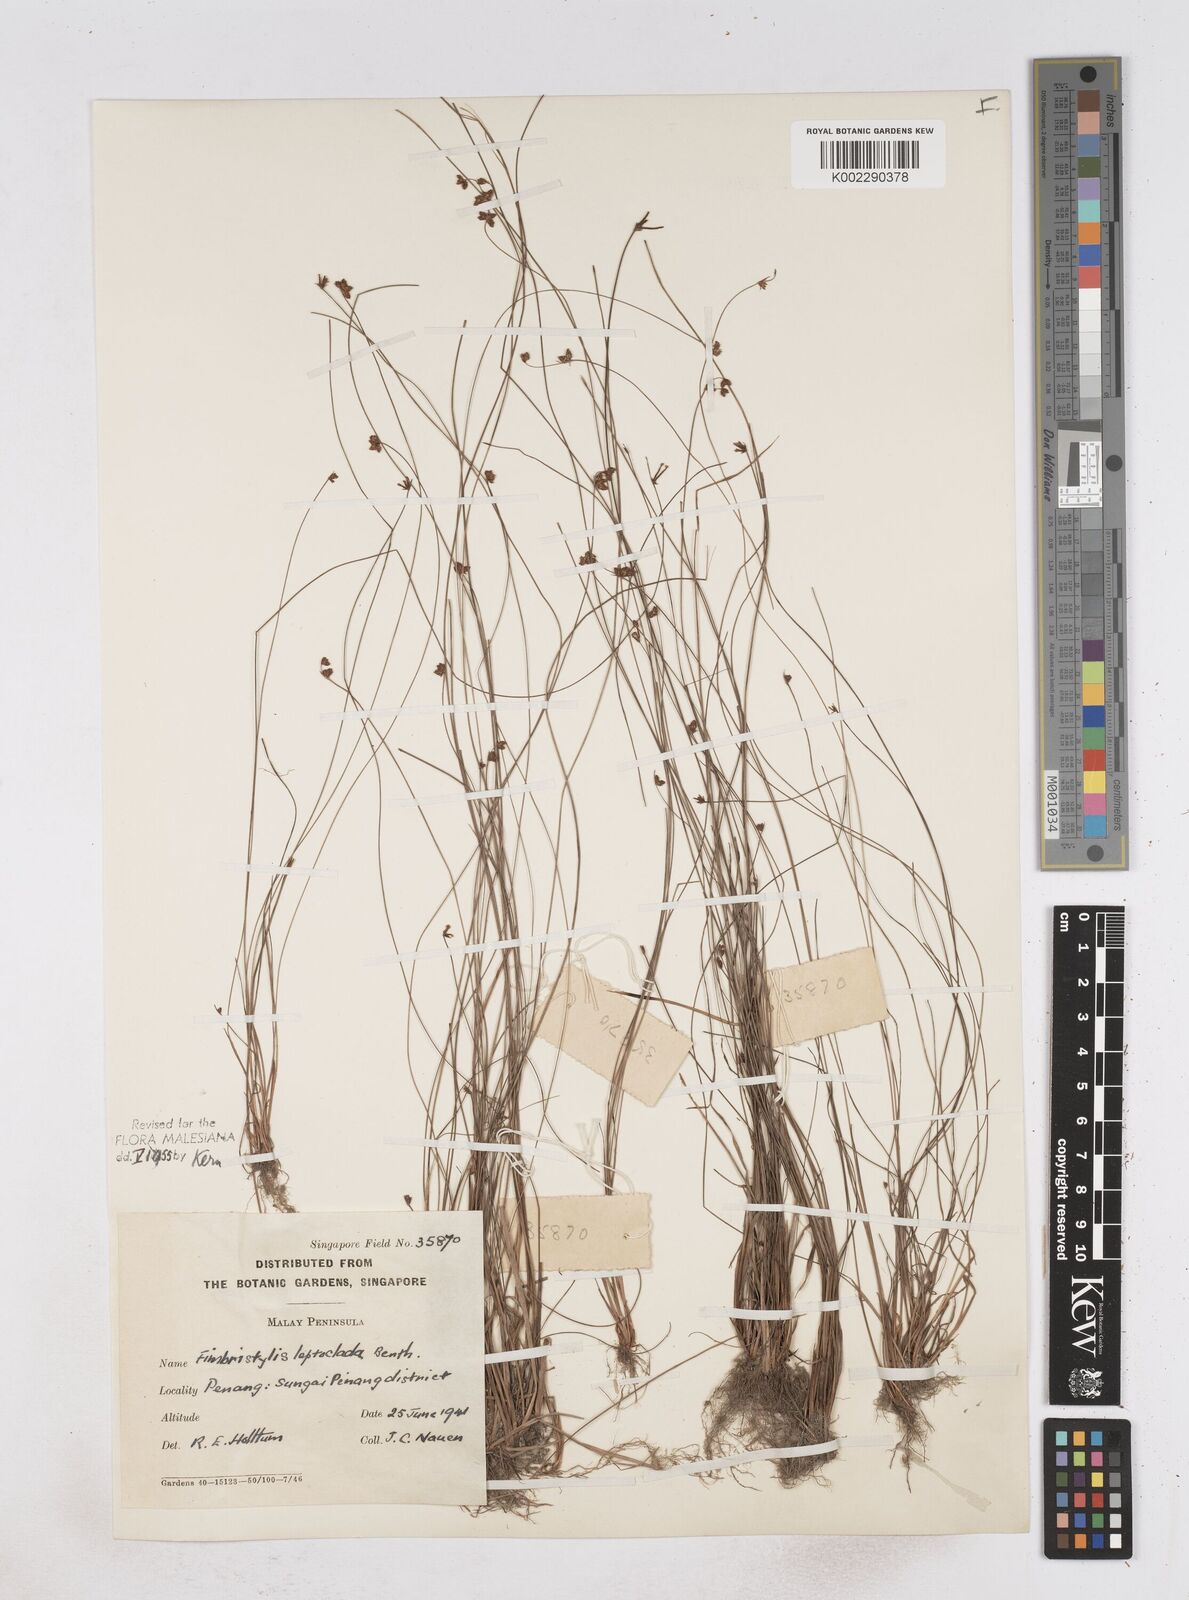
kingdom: Plantae
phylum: Tracheophyta
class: Liliopsida
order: Poales
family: Cyperaceae
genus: Fimbristylis
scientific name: Fimbristylis leptoclada
